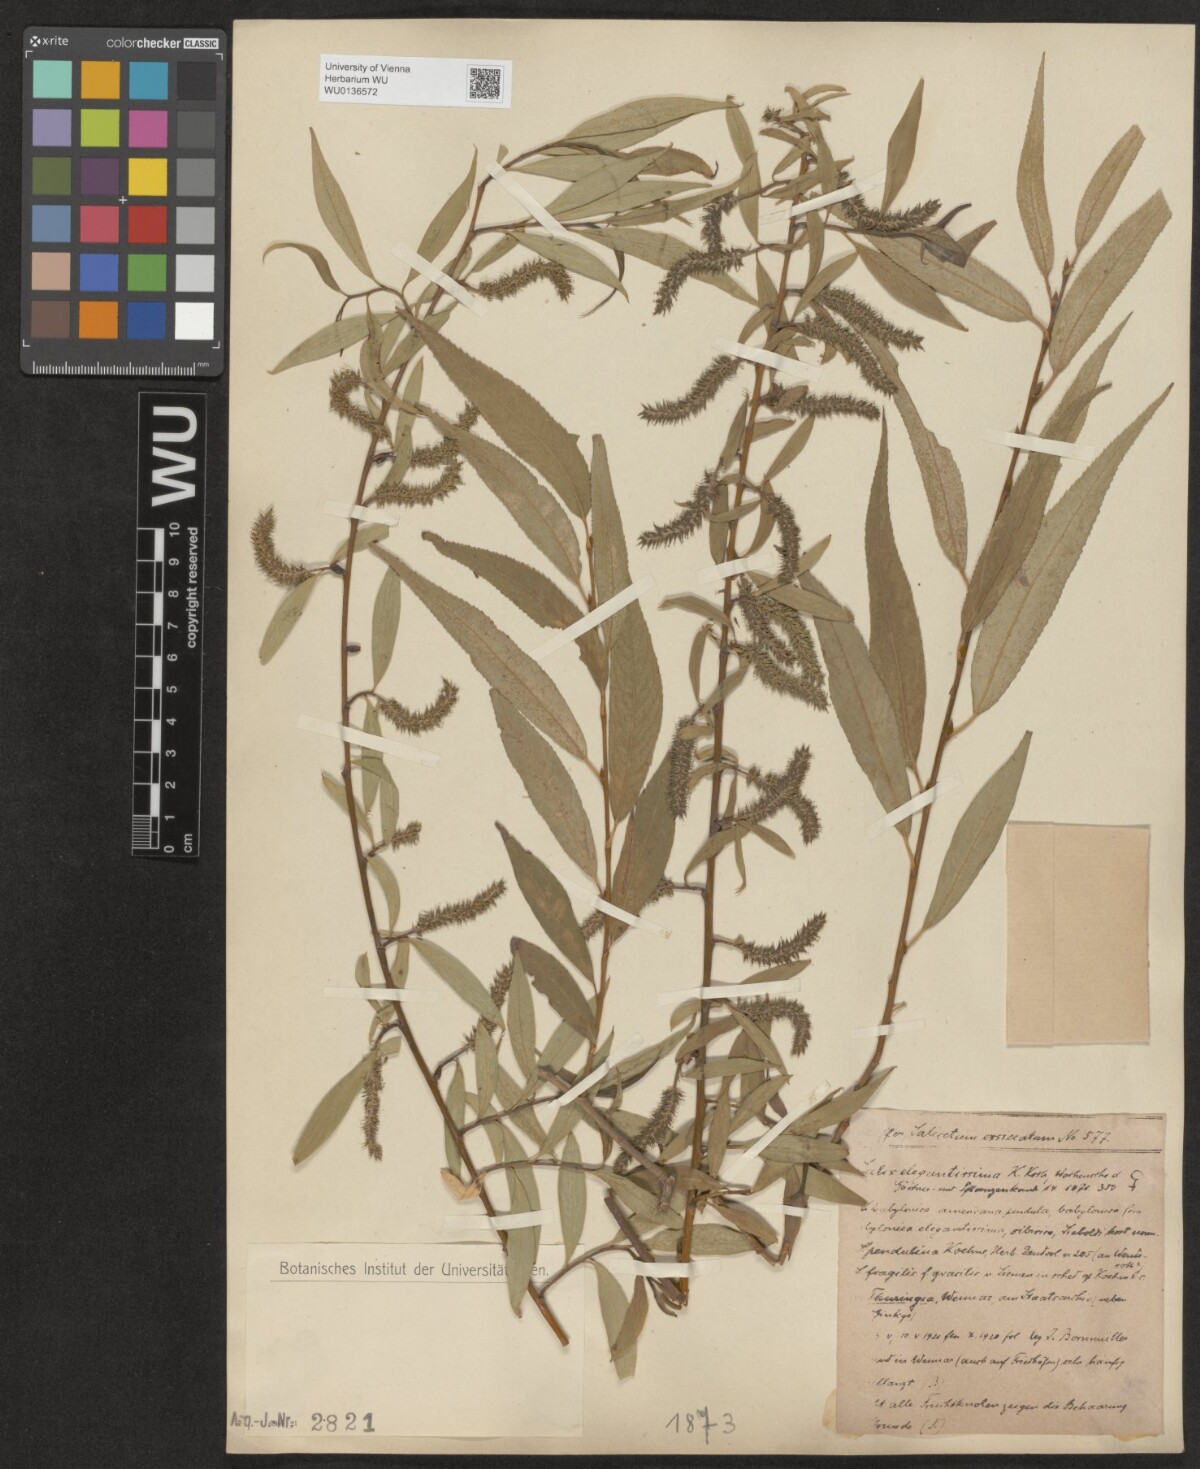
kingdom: Plantae
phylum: Tracheophyta
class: Magnoliopsida
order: Malpighiales
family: Salicaceae
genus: Salix
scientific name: Salix pendulina
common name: Wisconsin weeping willow
